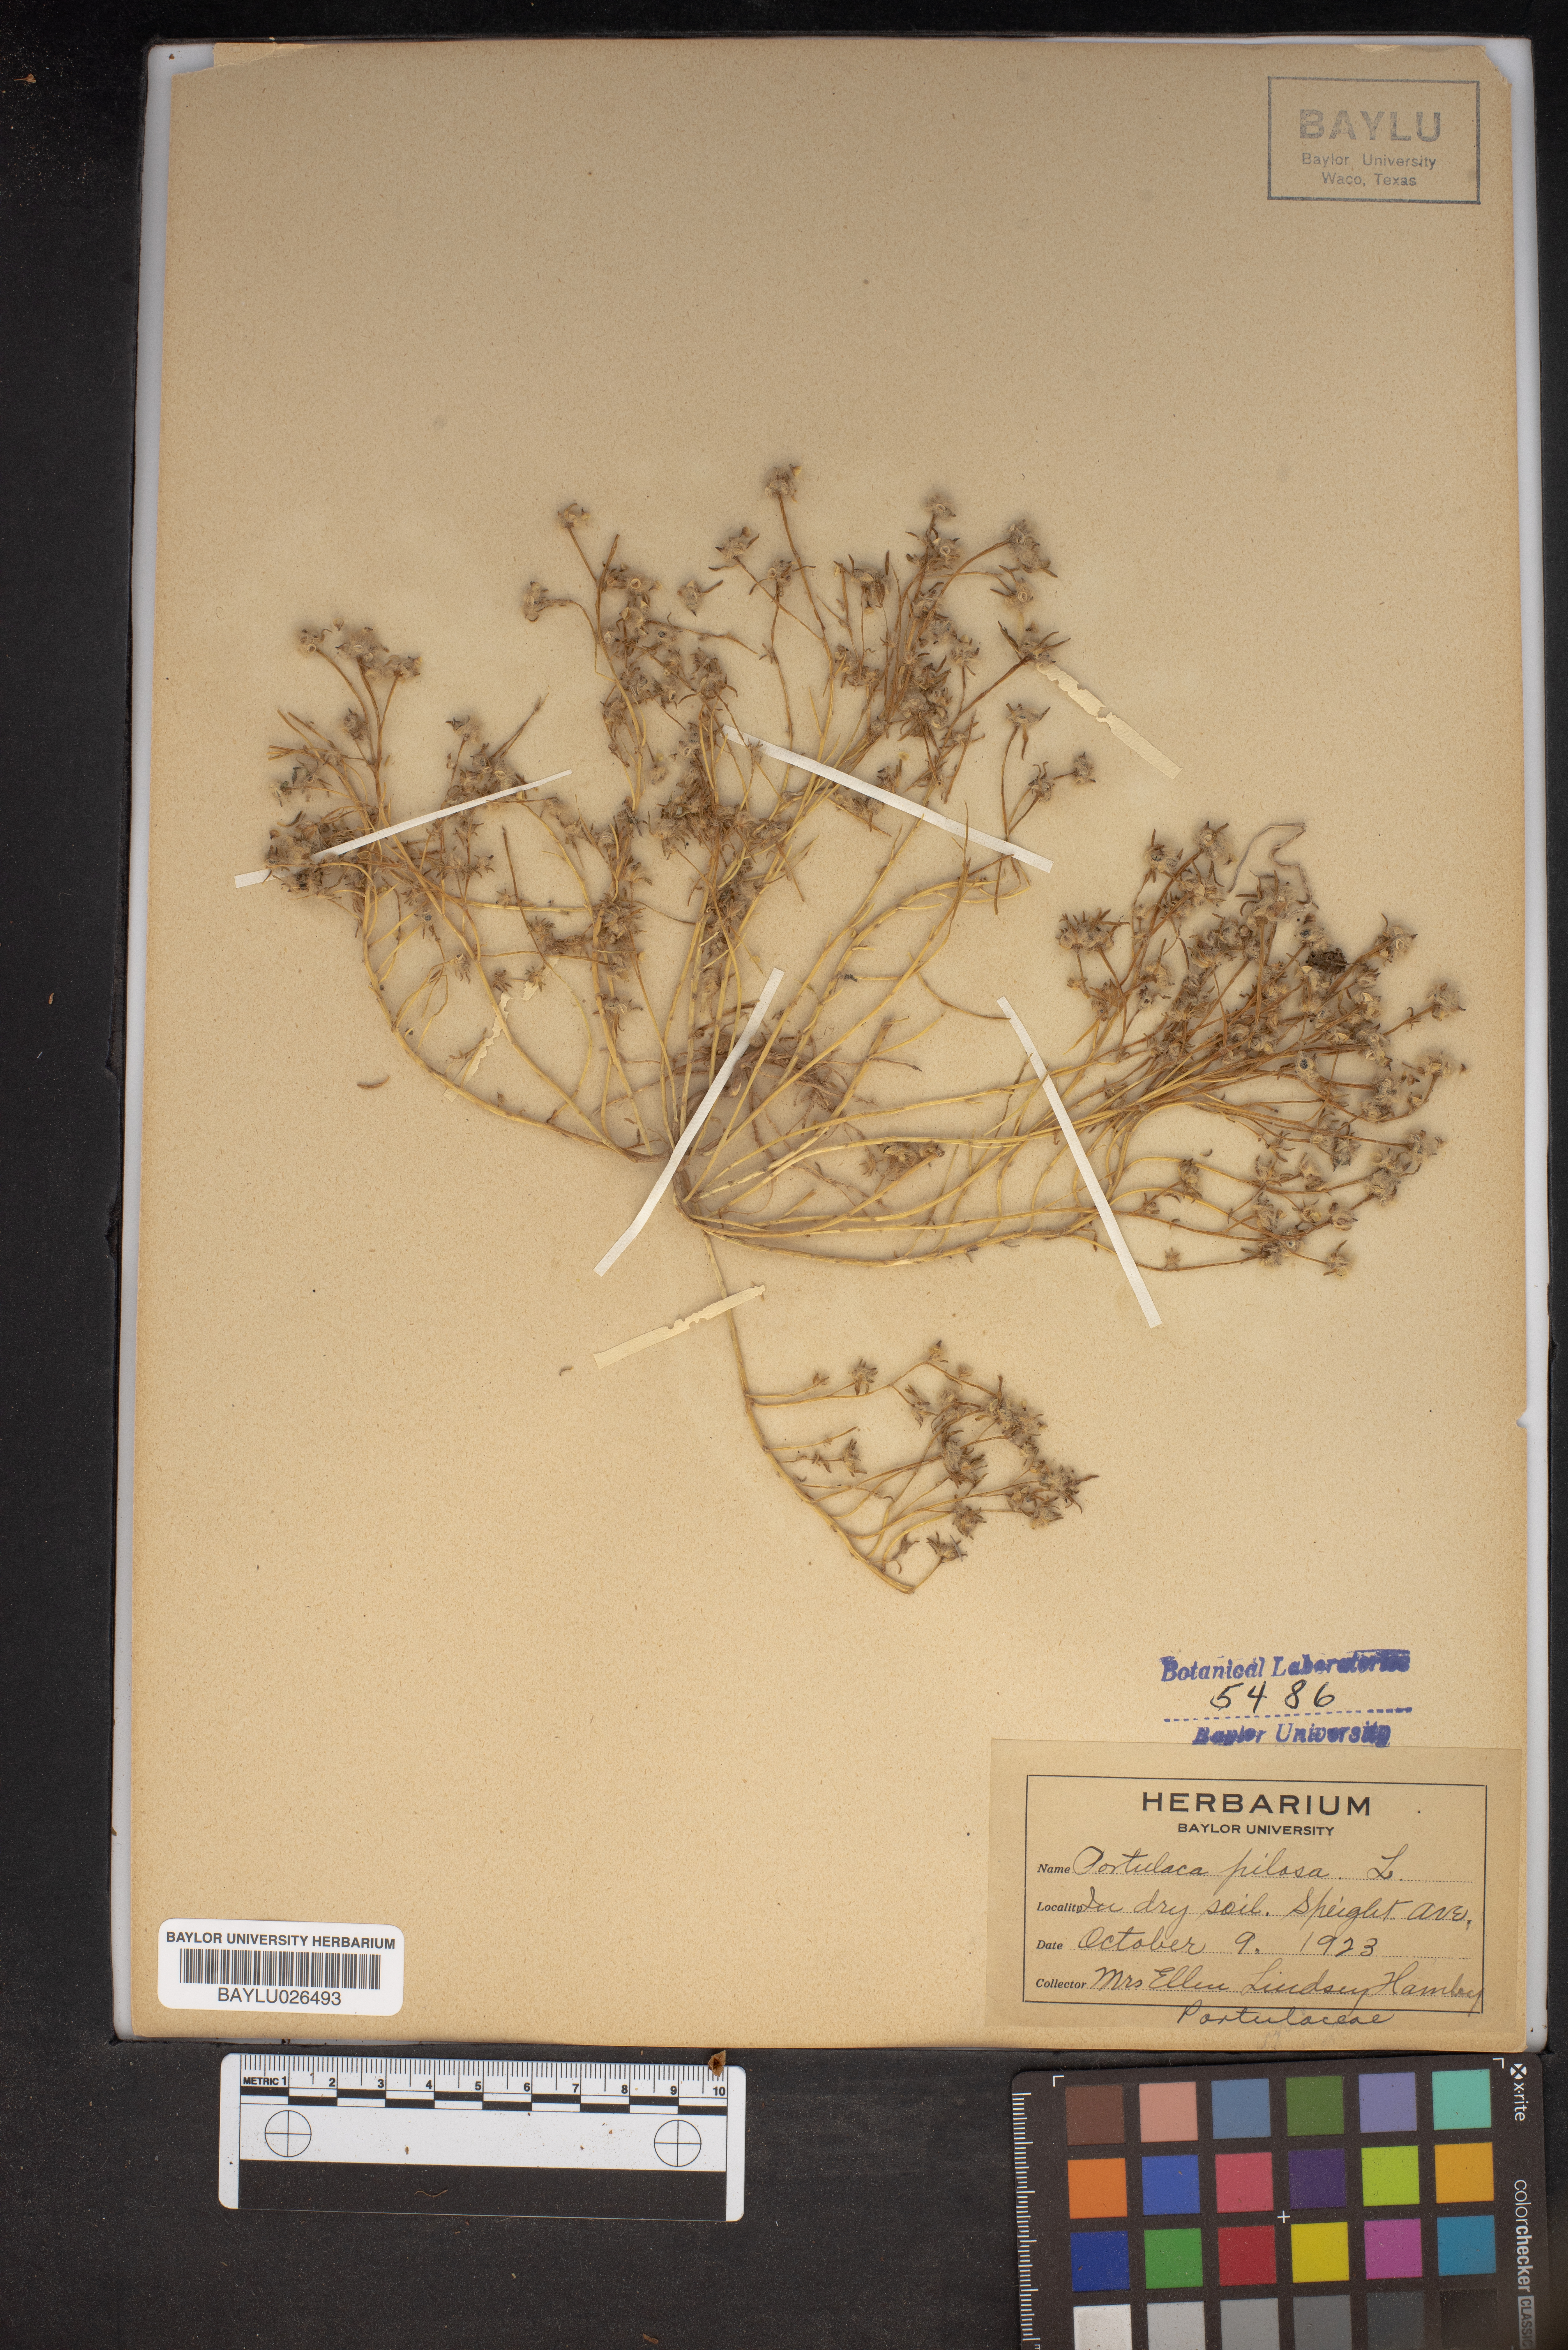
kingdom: Plantae
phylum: Tracheophyta
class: Magnoliopsida
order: Caryophyllales
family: Portulacaceae
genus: Portulaca
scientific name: Portulaca pilosa
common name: Kiss me quick
